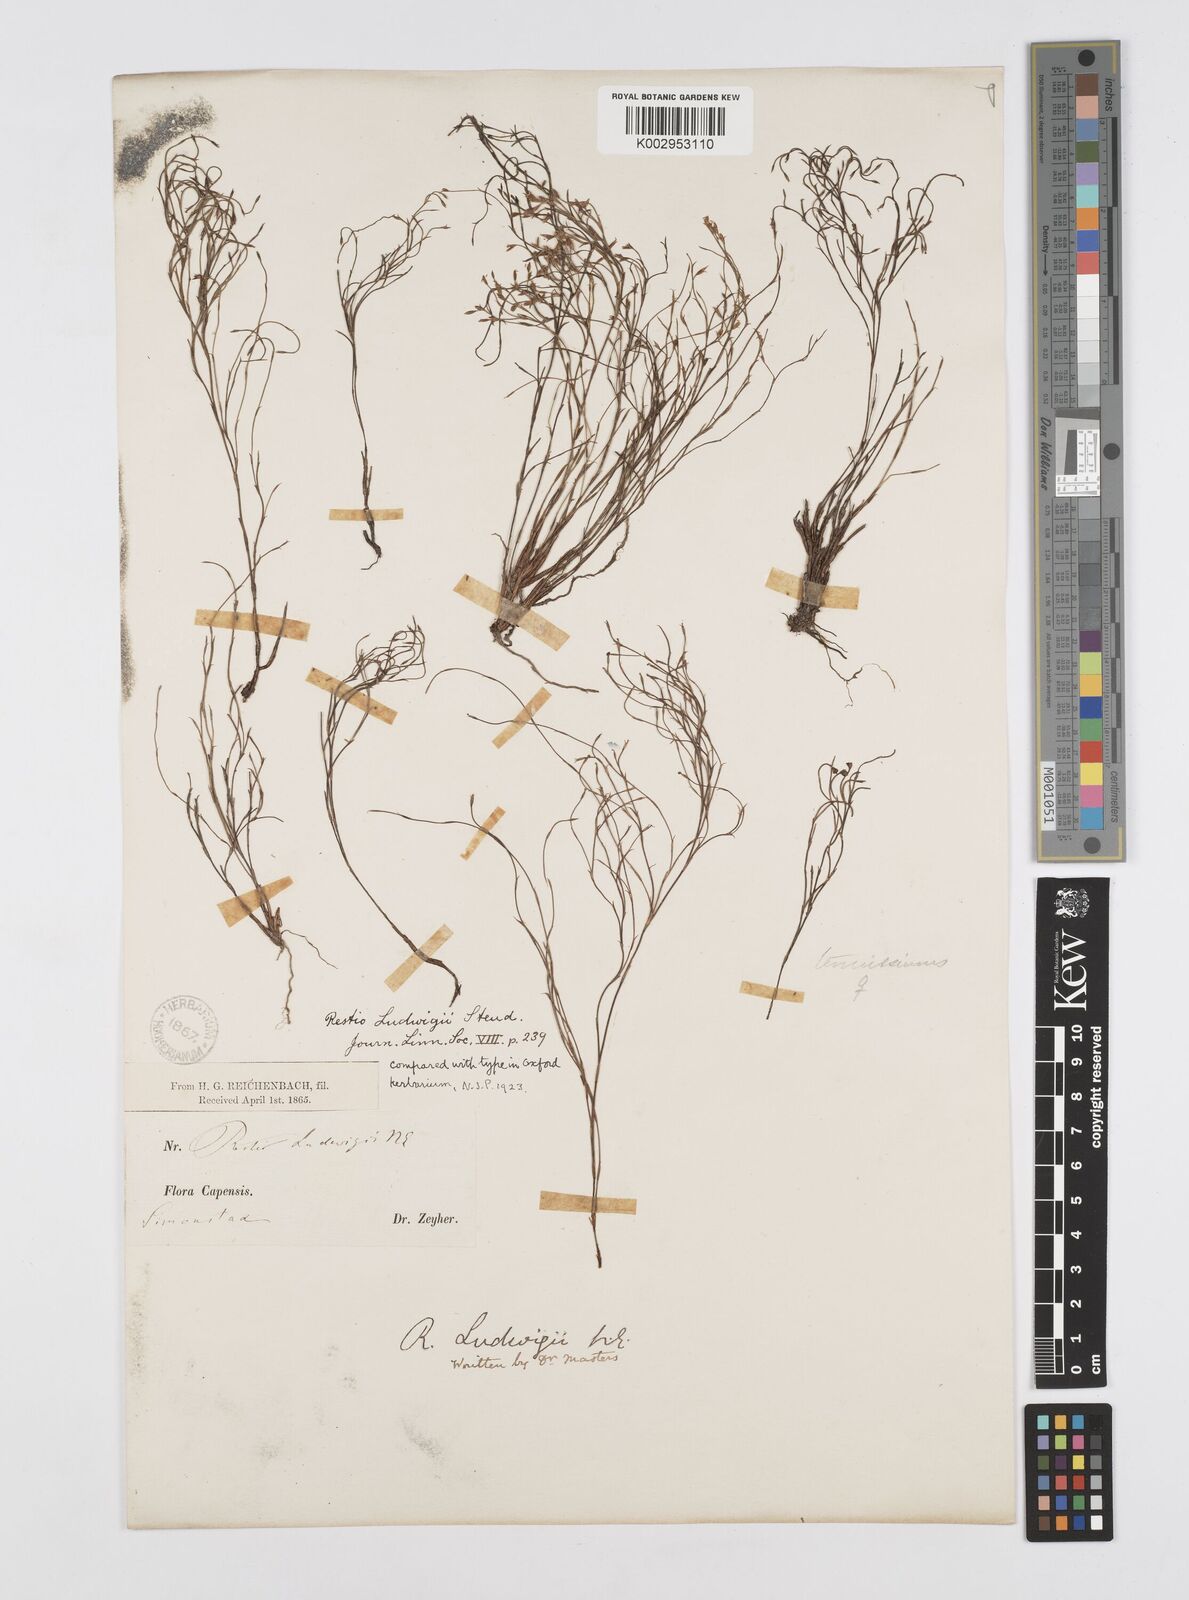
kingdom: Plantae
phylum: Tracheophyta
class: Liliopsida
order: Poales
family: Restionaceae
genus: Restio
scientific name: Restio tenuissimus
